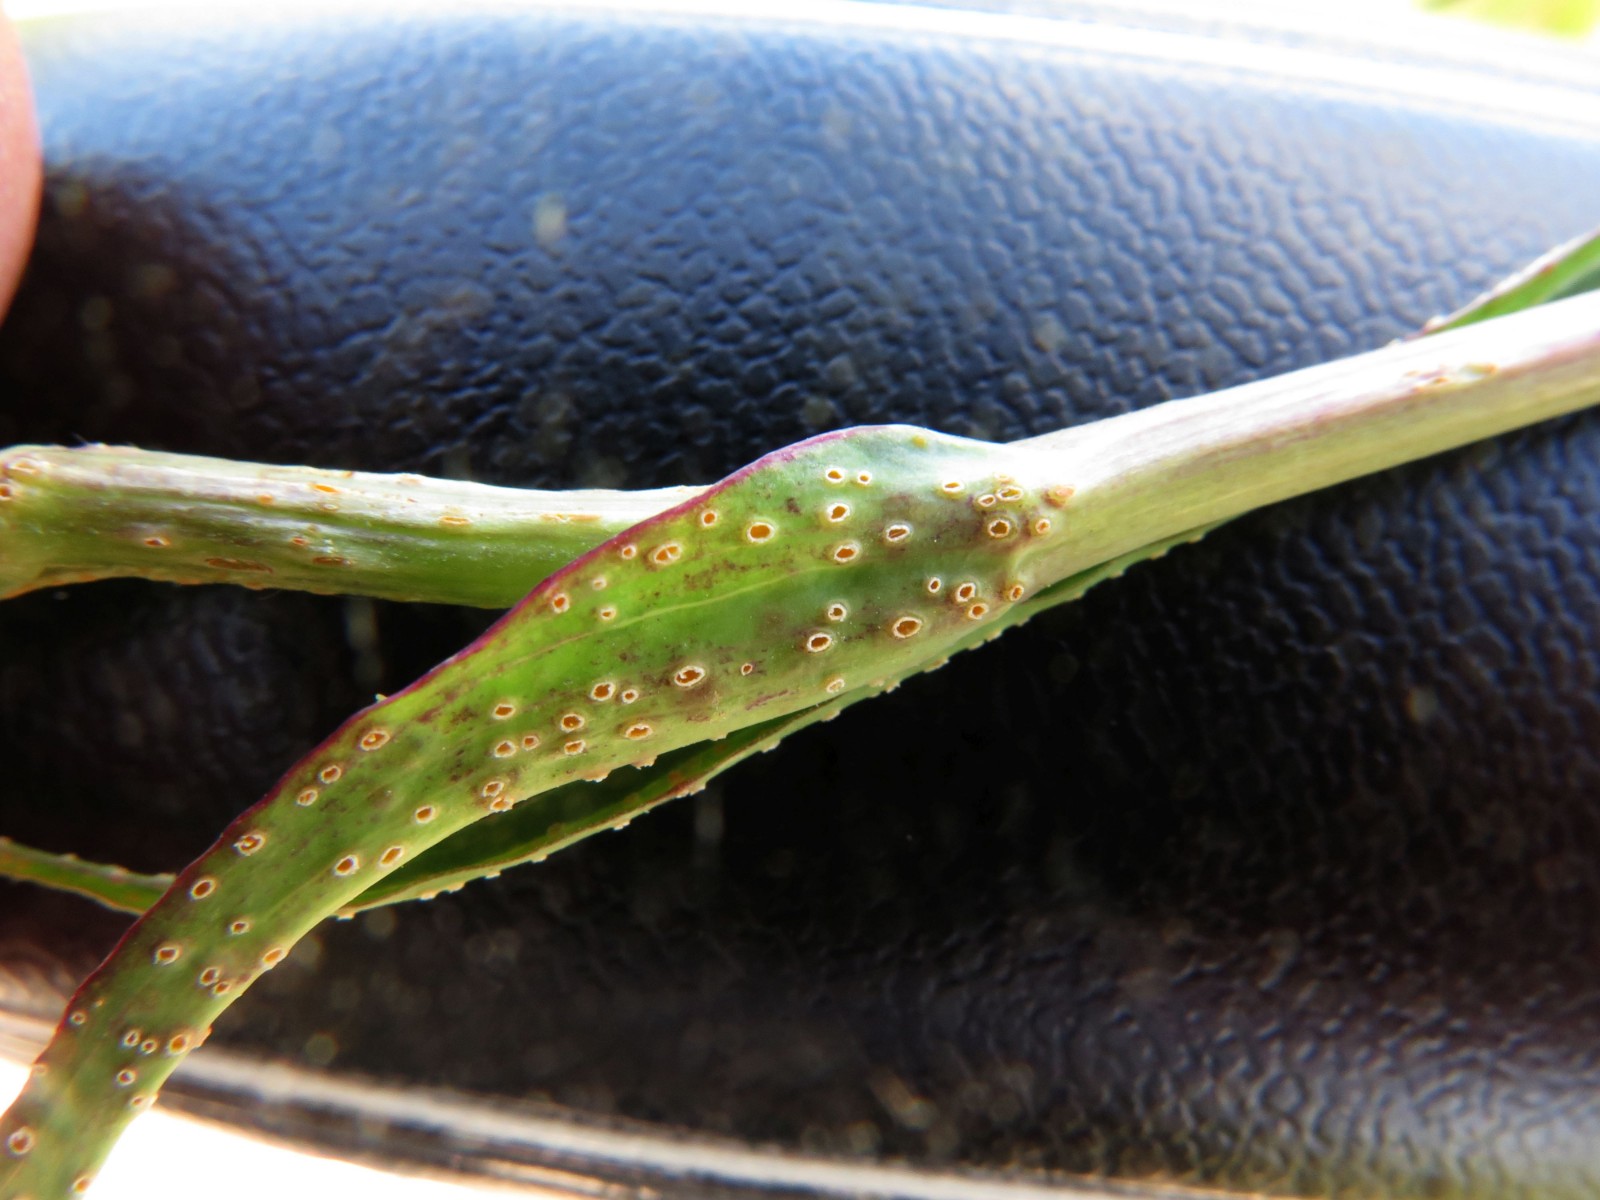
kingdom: Fungi
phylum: Basidiomycota
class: Pucciniomycetes
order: Pucciniales
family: Pucciniaceae
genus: Puccinia
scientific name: Puccinia hysterium
